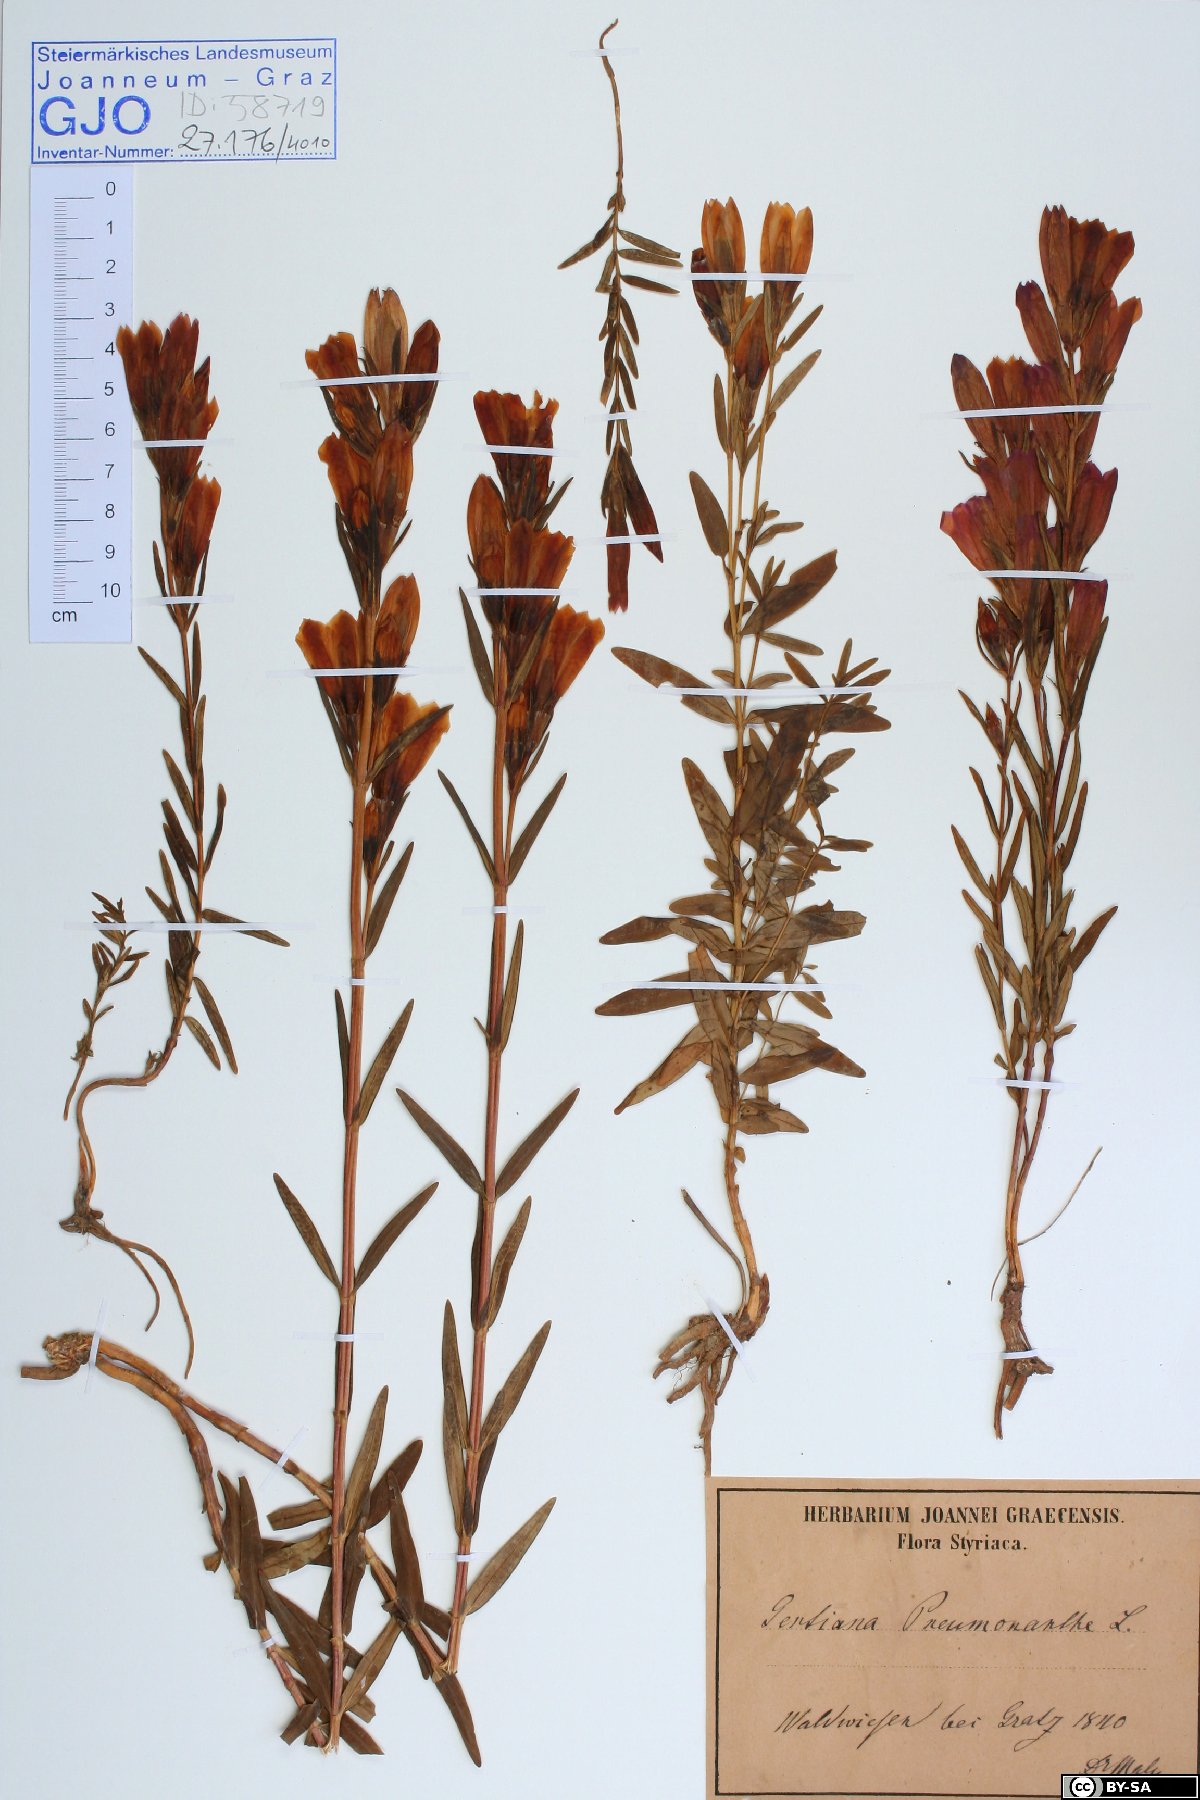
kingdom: Plantae
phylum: Tracheophyta
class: Magnoliopsida
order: Gentianales
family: Gentianaceae
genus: Gentiana
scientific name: Gentiana pneumonanthe
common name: Marsh gentian
